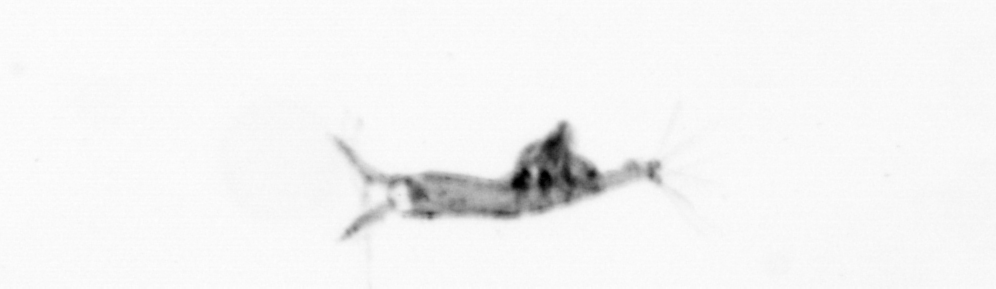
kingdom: Animalia
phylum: Arthropoda
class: Copepoda
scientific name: Copepoda
